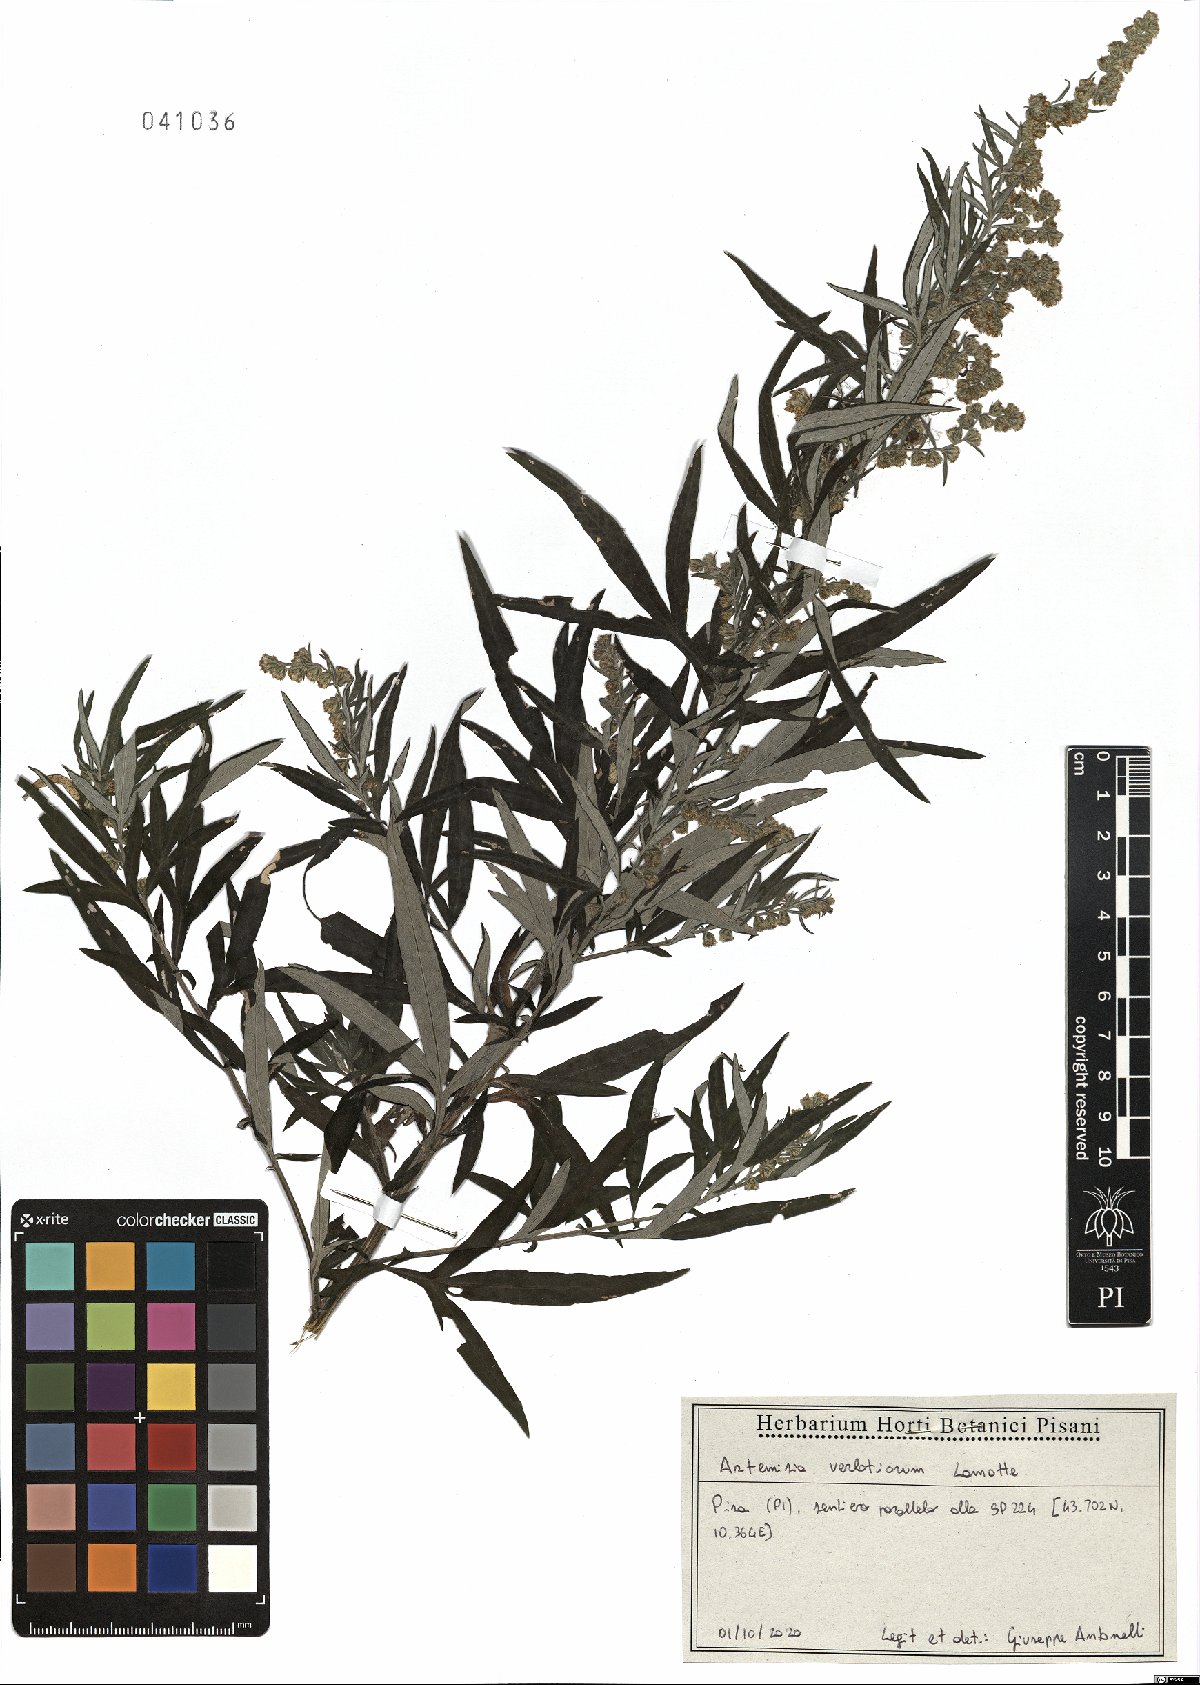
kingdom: Plantae
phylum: Tracheophyta
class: Magnoliopsida
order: Asterales
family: Asteraceae
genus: Artemisia
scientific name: Artemisia verlotiorum
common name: Chinese mugwort
